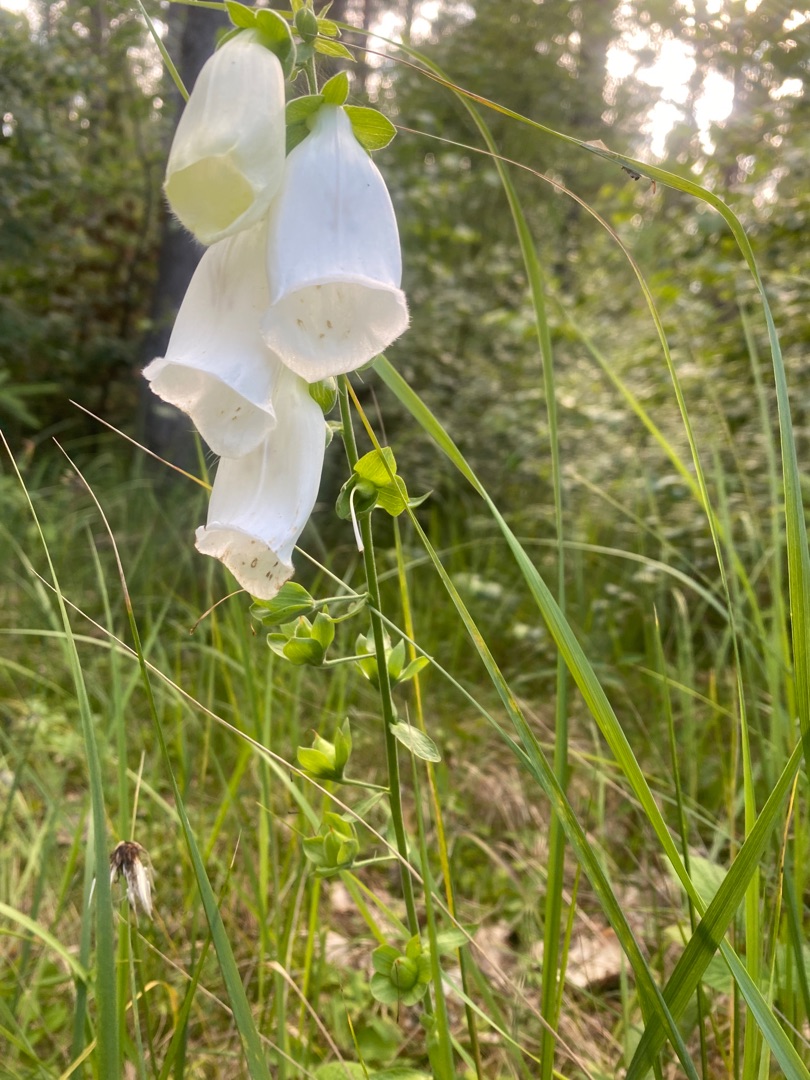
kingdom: Plantae
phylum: Tracheophyta
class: Magnoliopsida
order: Lamiales
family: Plantaginaceae
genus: Digitalis
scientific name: Digitalis purpurea
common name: Almindelig fingerbøl
